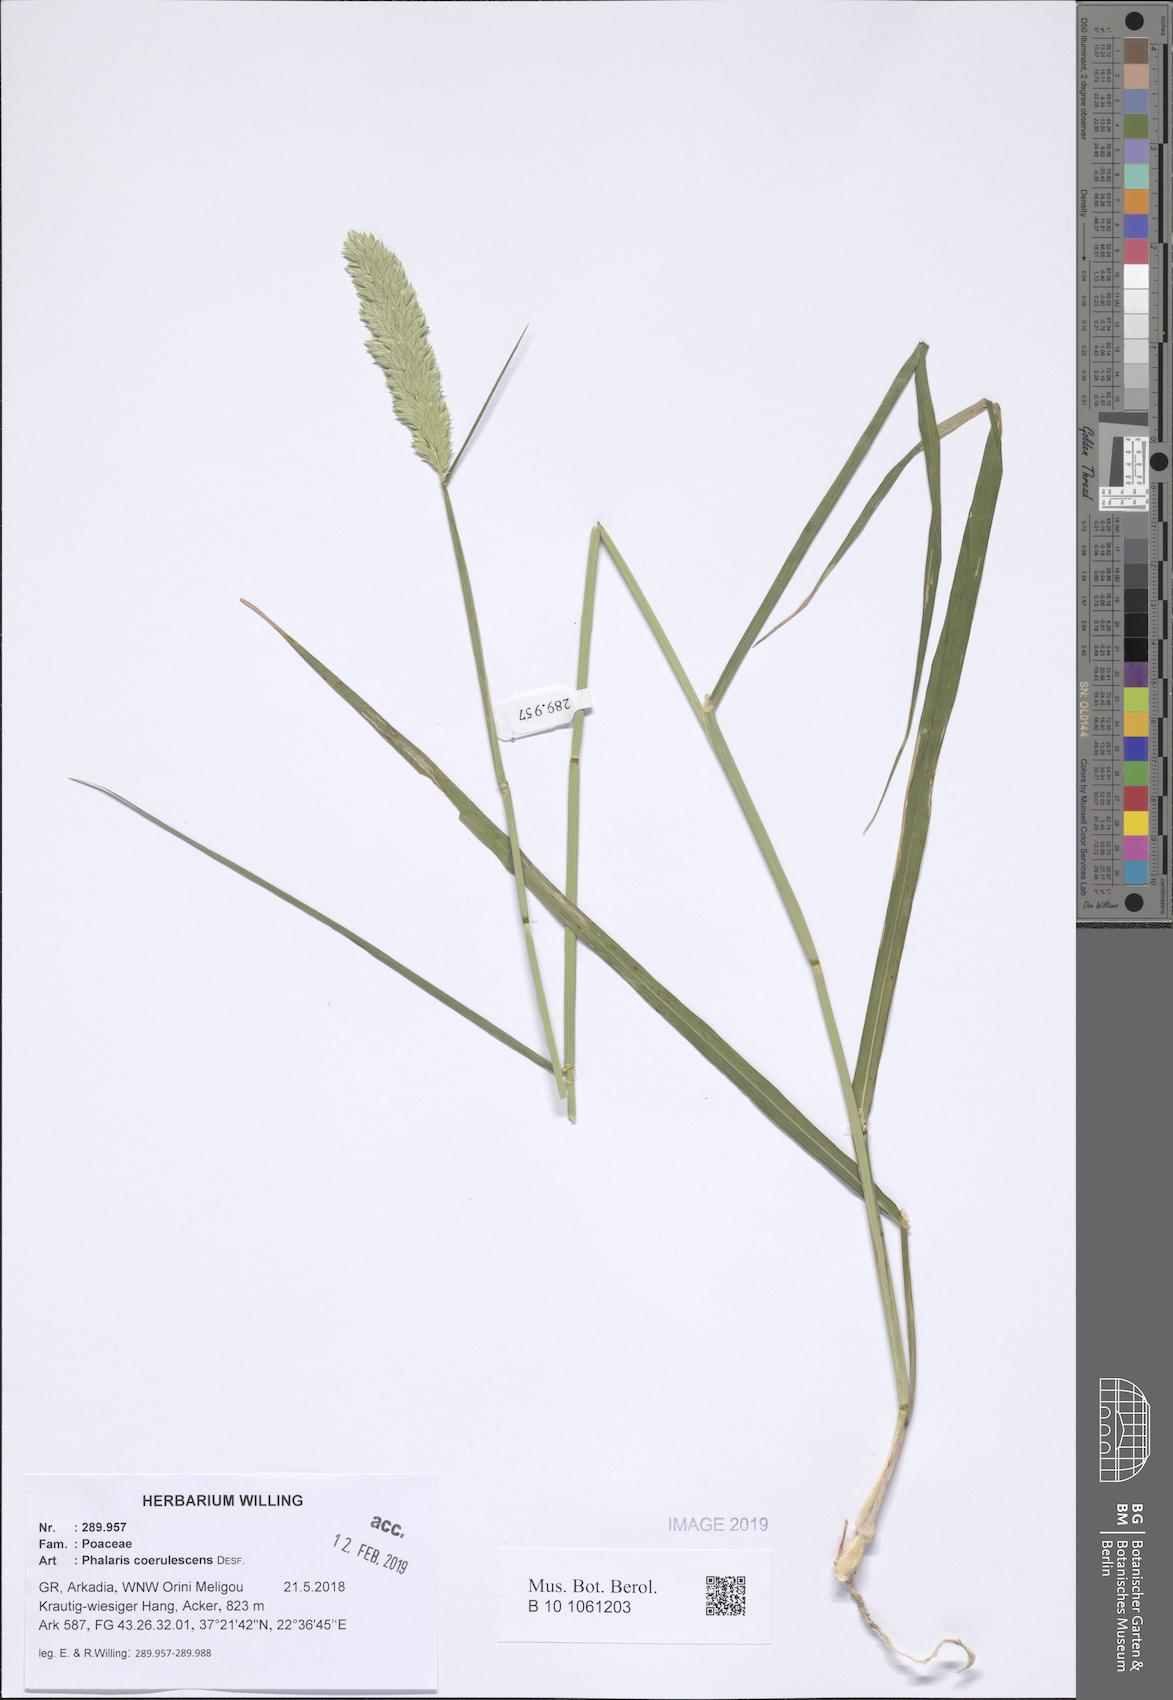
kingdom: Plantae
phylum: Tracheophyta
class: Liliopsida
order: Poales
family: Poaceae
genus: Phalaris
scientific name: Phalaris coerulescens
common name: Sunolgrass
